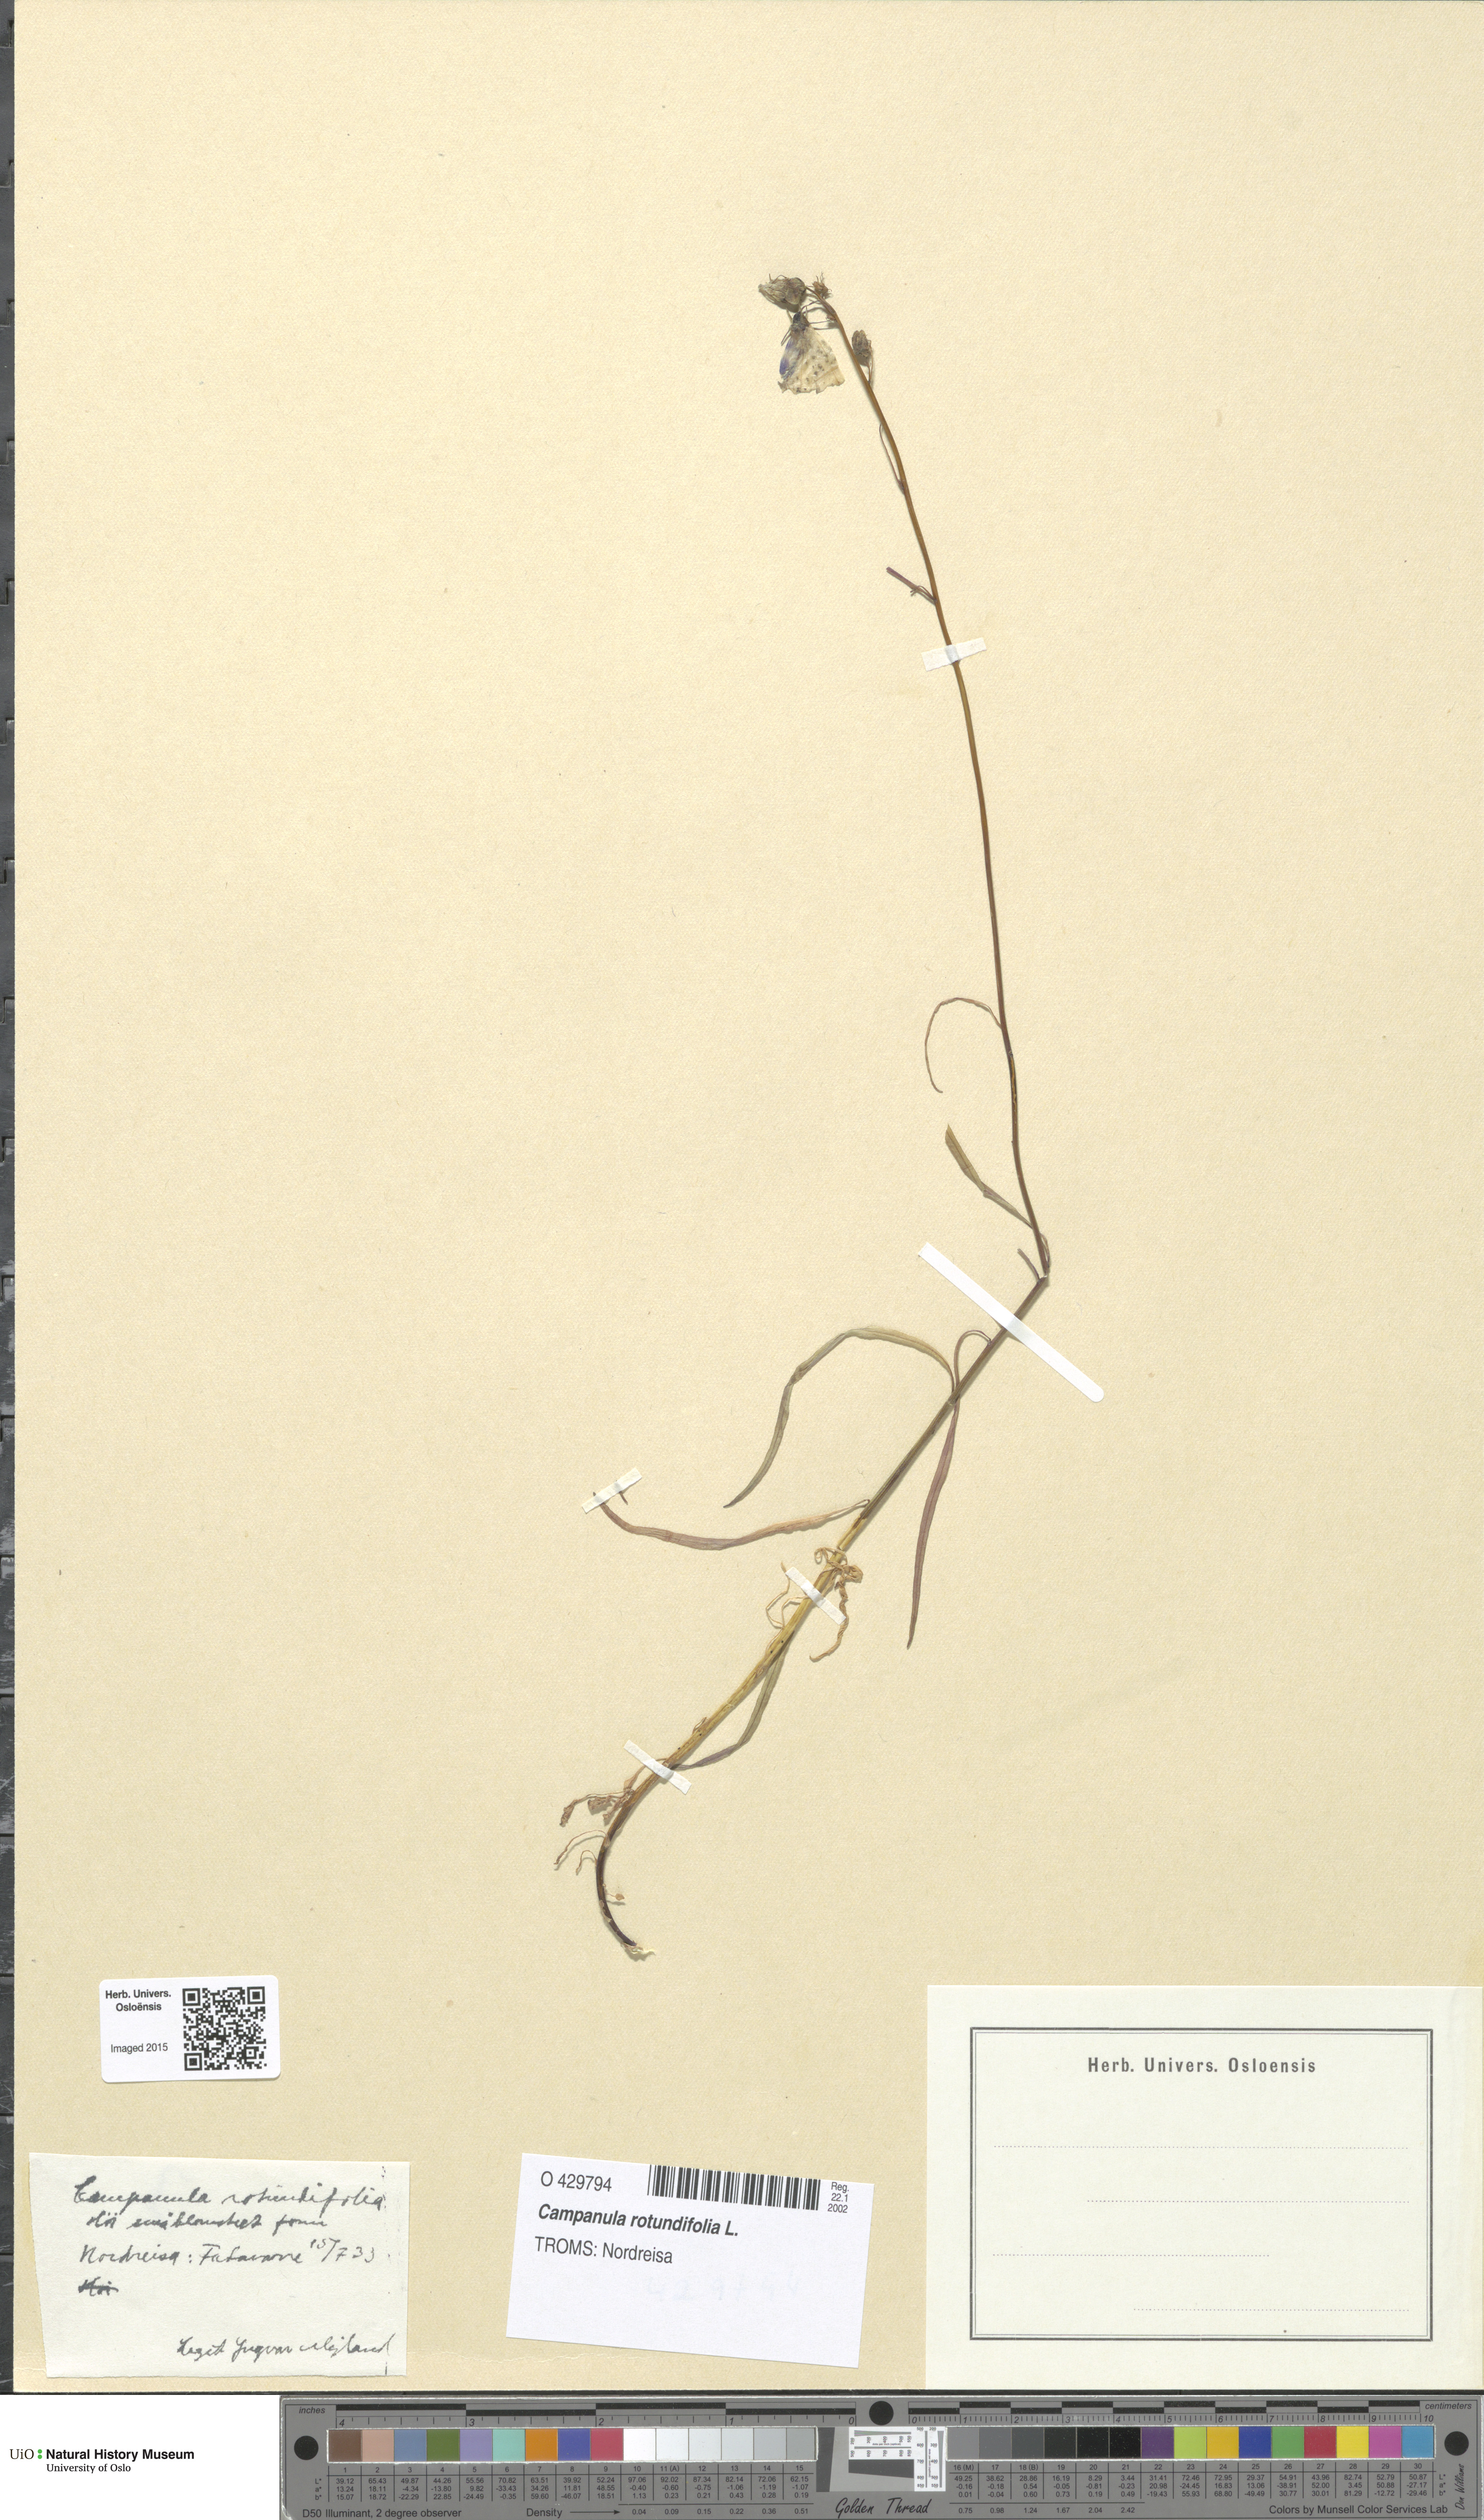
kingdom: Plantae
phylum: Tracheophyta
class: Magnoliopsida
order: Asterales
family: Campanulaceae
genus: Campanula
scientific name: Campanula rotundifolia
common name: Harebell
